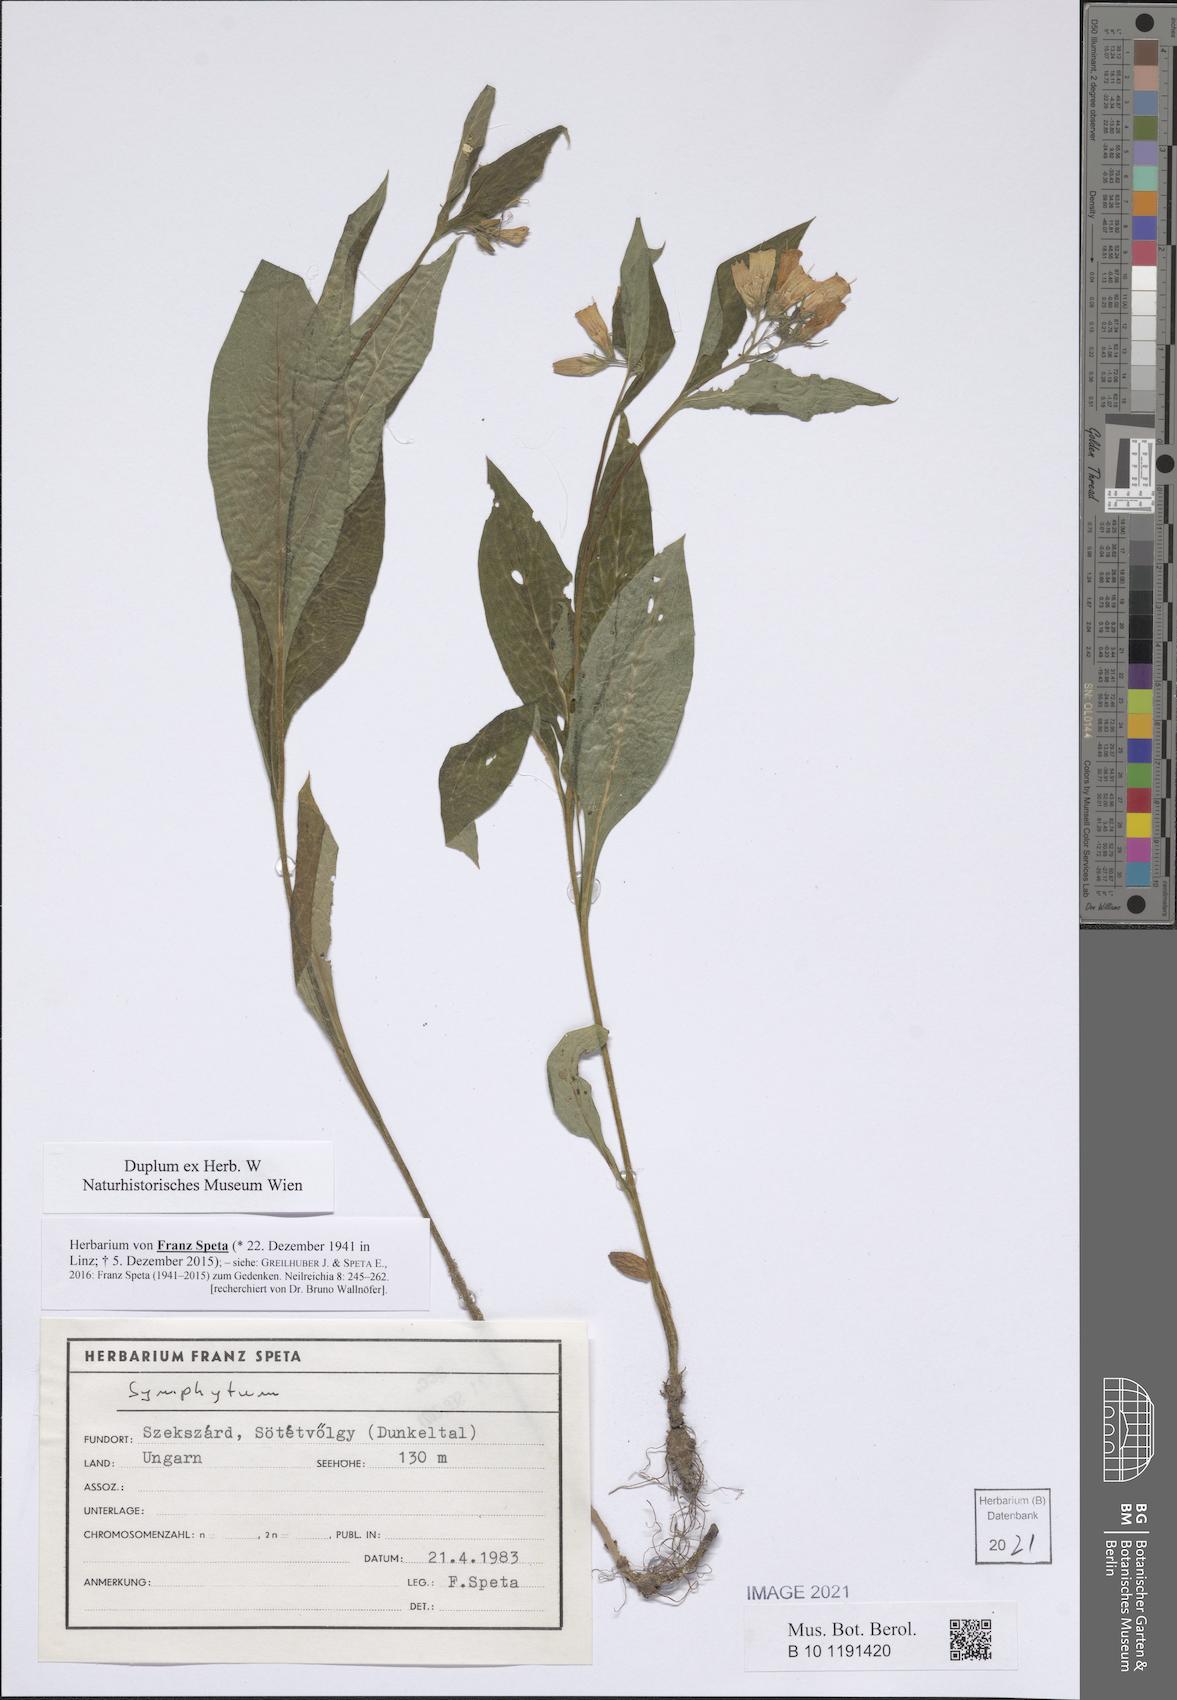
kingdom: Plantae
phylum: Tracheophyta
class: Magnoliopsida
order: Boraginales
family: Boraginaceae
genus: Symphytum
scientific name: Symphytum
